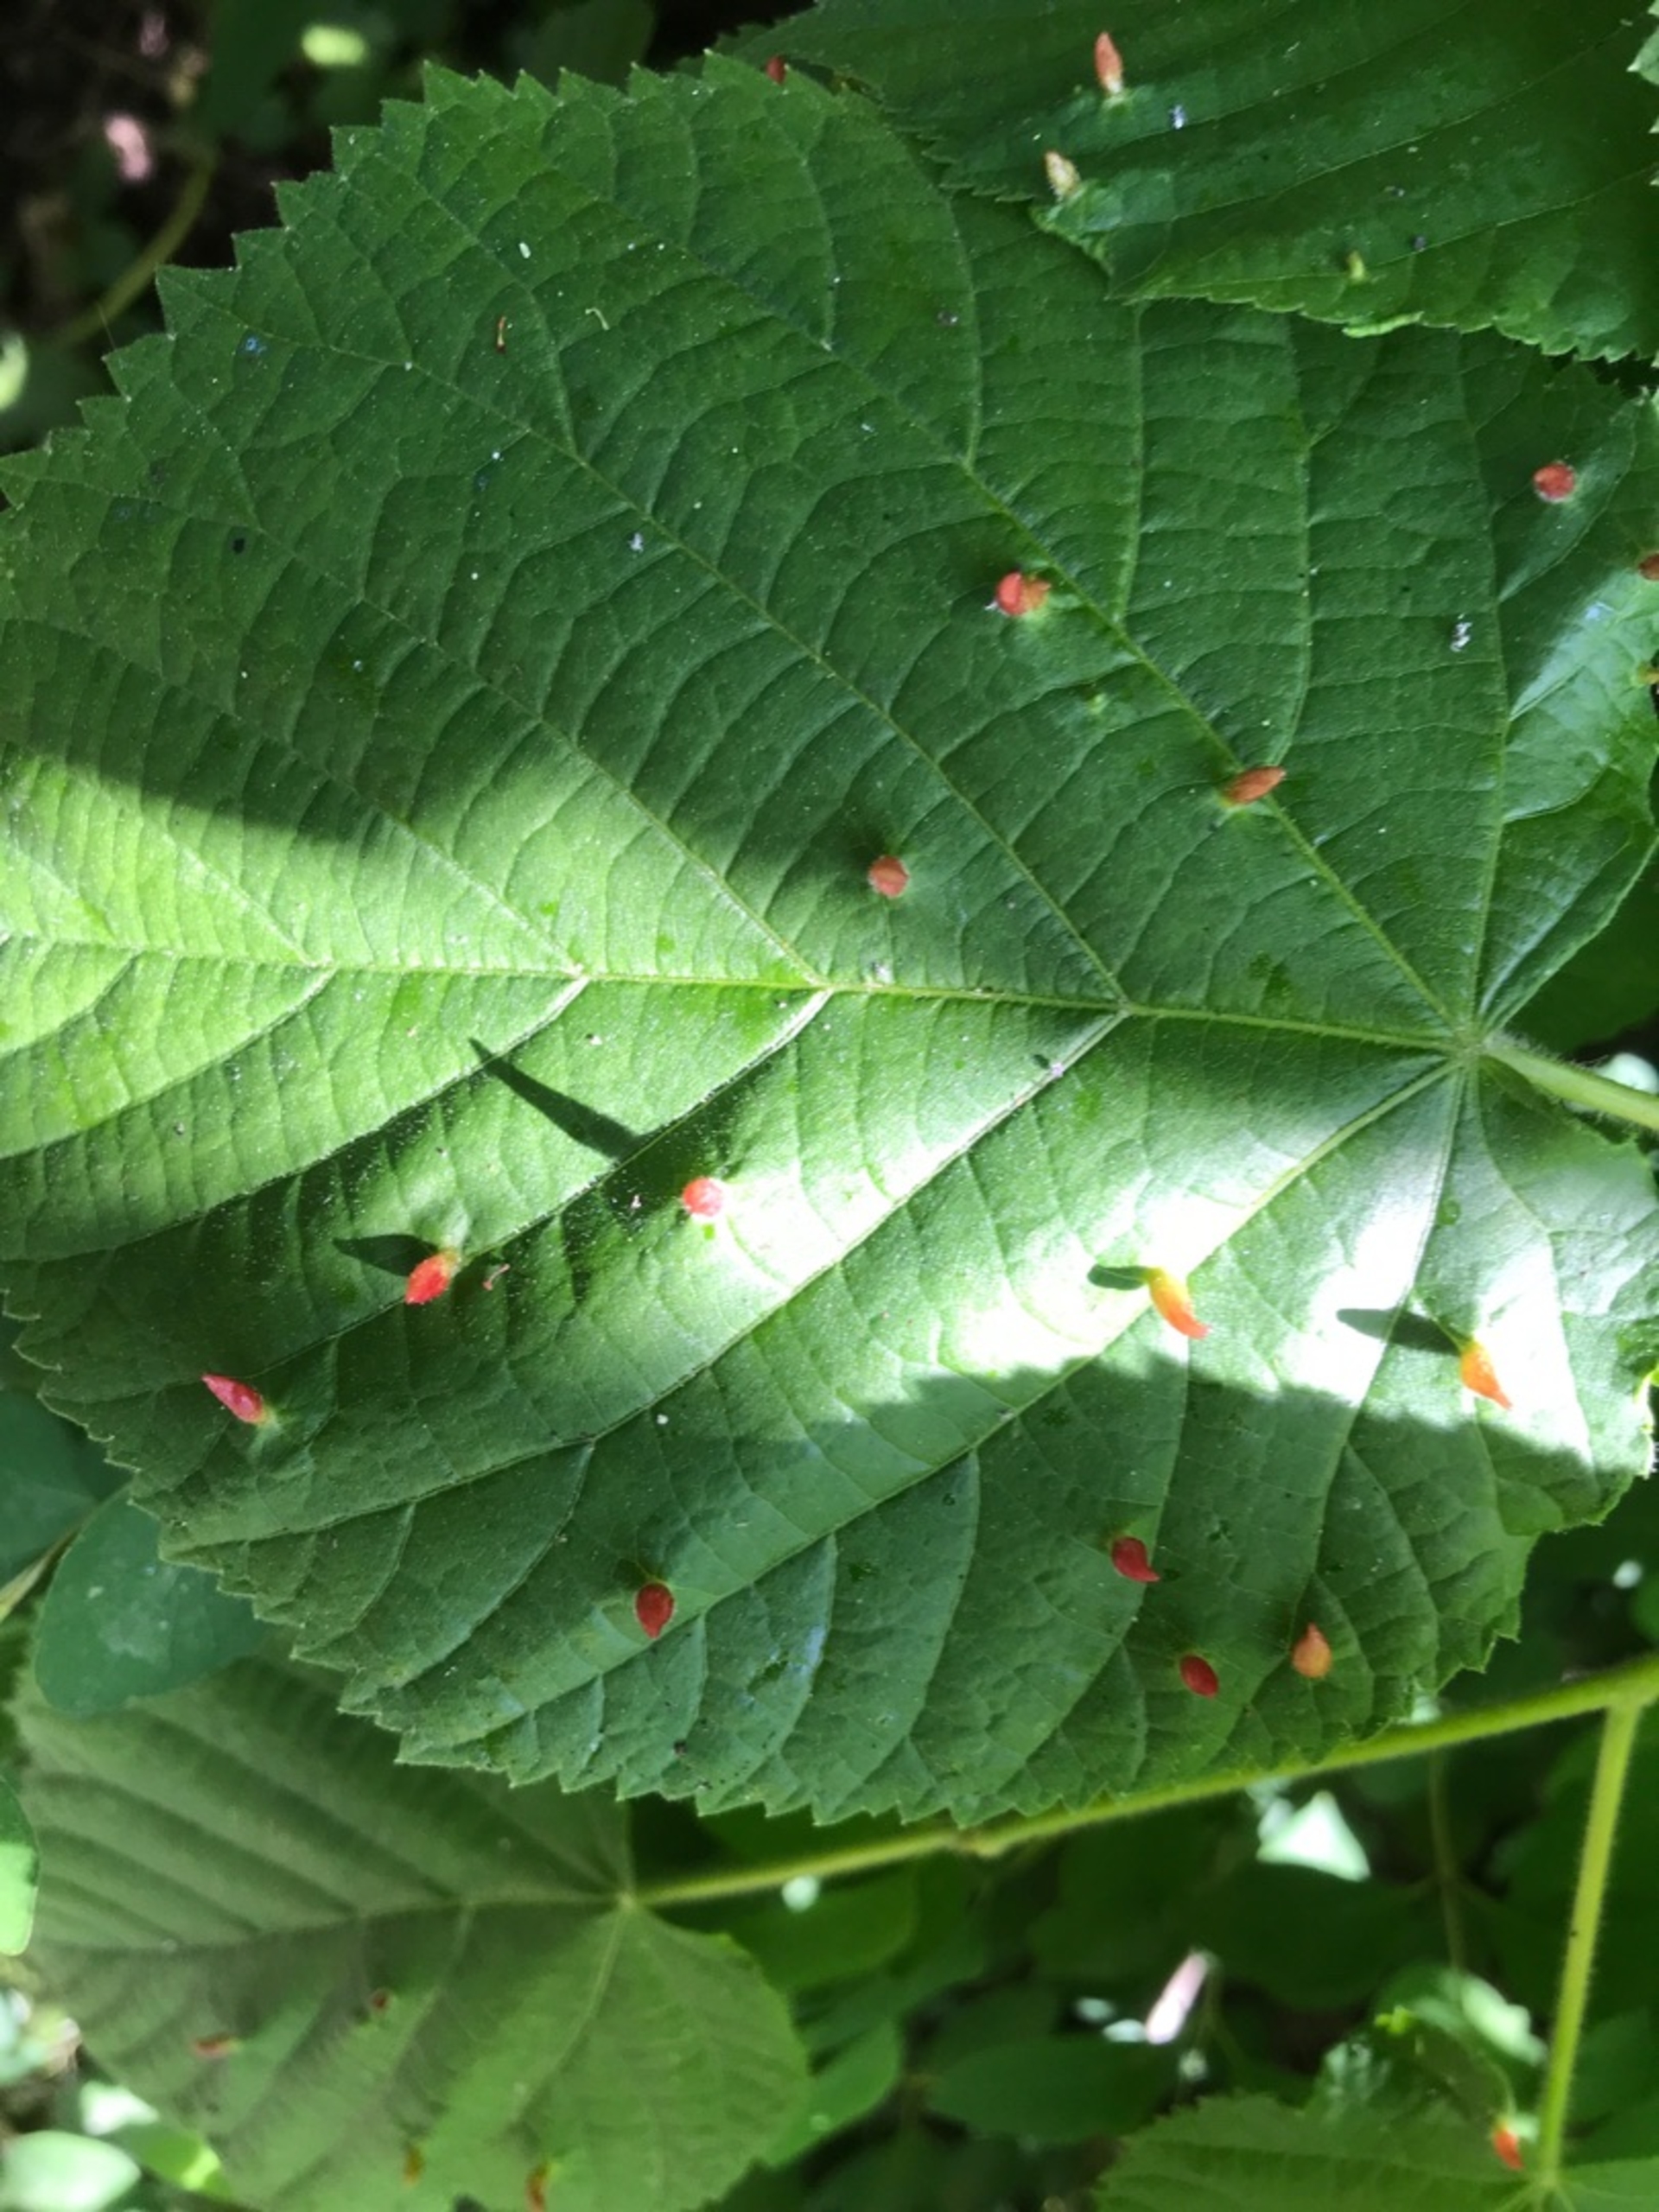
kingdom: Animalia
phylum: Arthropoda
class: Arachnida
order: Trombidiformes
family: Eriophyidae
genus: Eriophyes
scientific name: Eriophyes tiliae
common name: Lindepunggalmide
